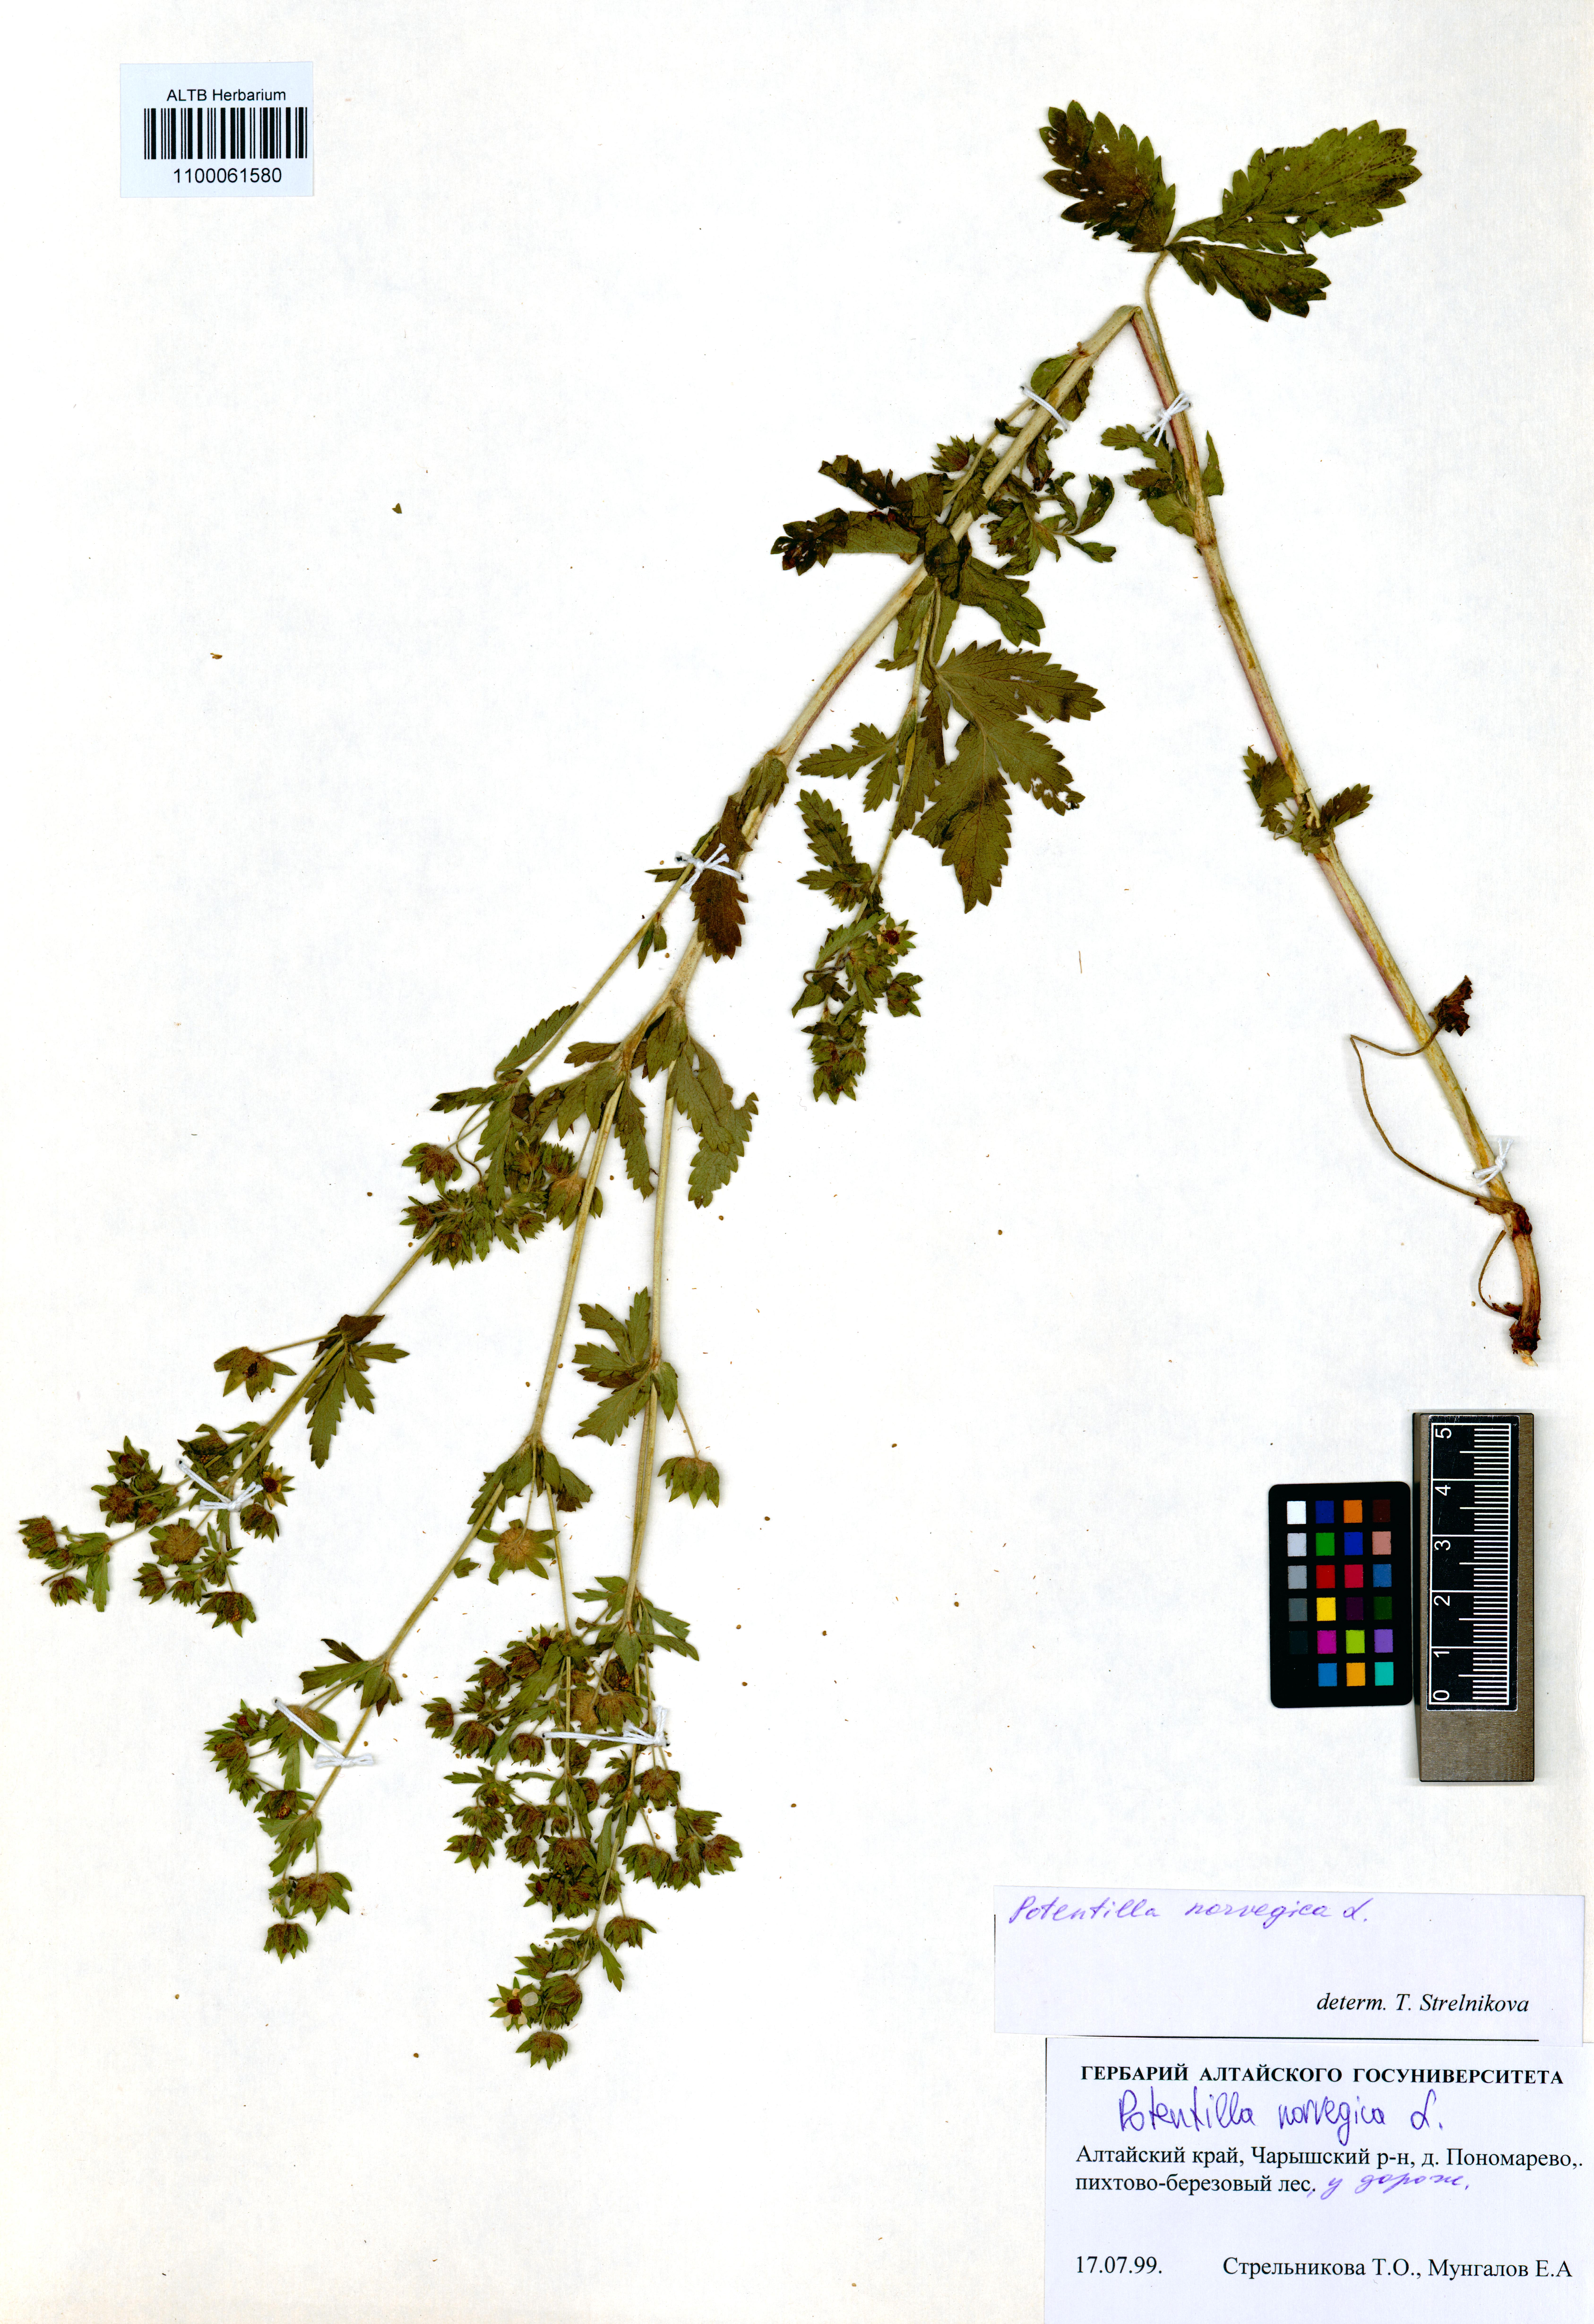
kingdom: Plantae
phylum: Tracheophyta
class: Magnoliopsida
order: Rosales
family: Rosaceae
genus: Potentilla
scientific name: Potentilla norvegica
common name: Ternate-leaved cinquefoil
